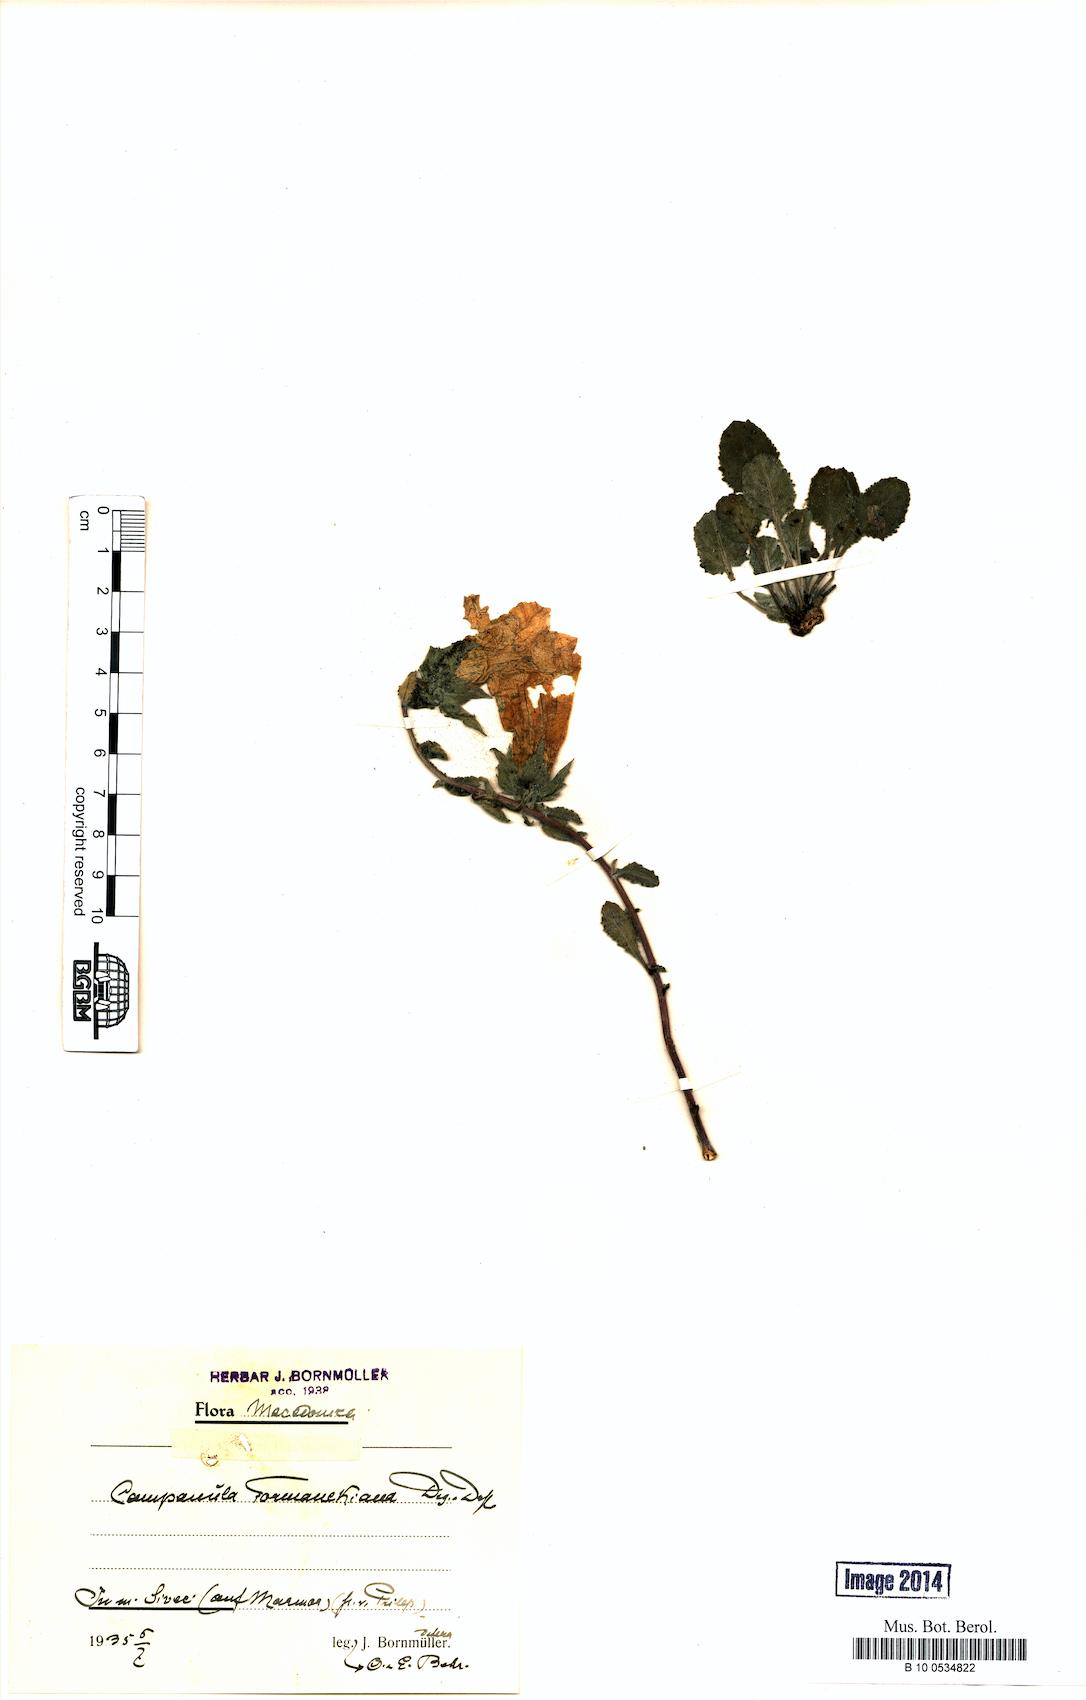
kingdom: Plantae
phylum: Tracheophyta
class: Magnoliopsida
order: Asterales
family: Campanulaceae
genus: Campanula
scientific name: Campanula formanekiana
